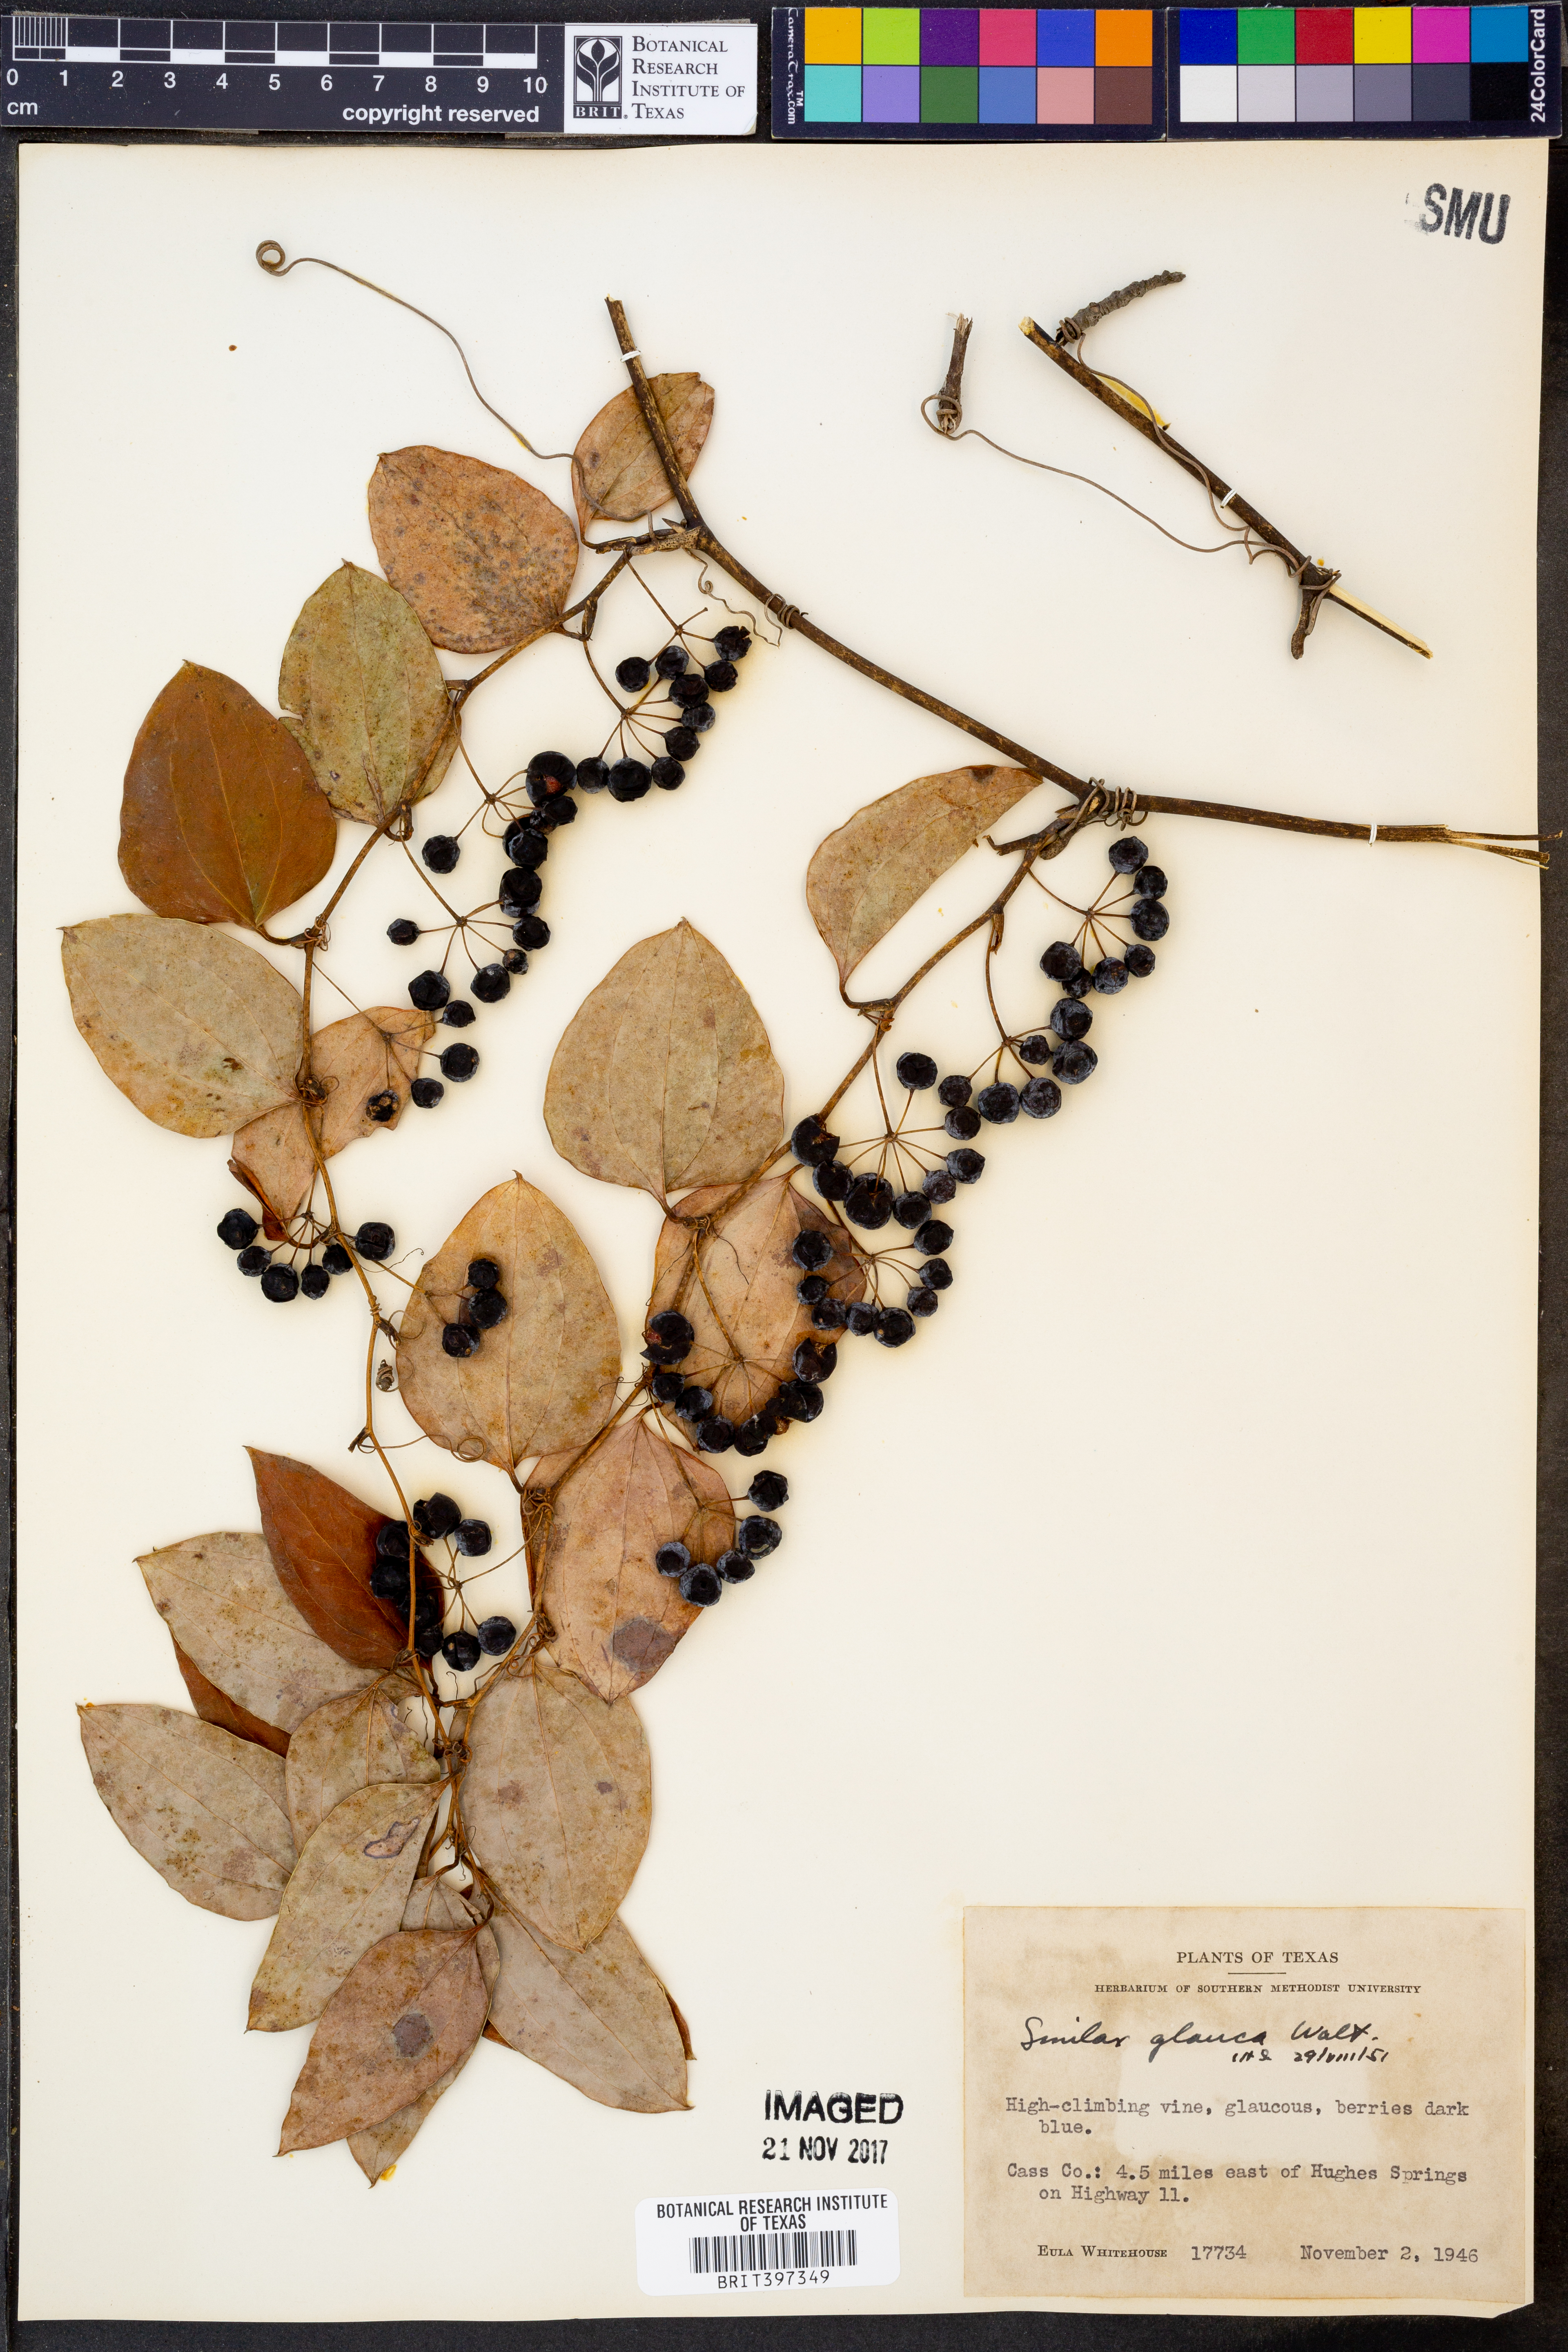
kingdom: Plantae
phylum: Tracheophyta
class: Liliopsida
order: Liliales
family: Smilacaceae
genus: Smilax
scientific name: Smilax glauca
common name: Cat greenbrier
